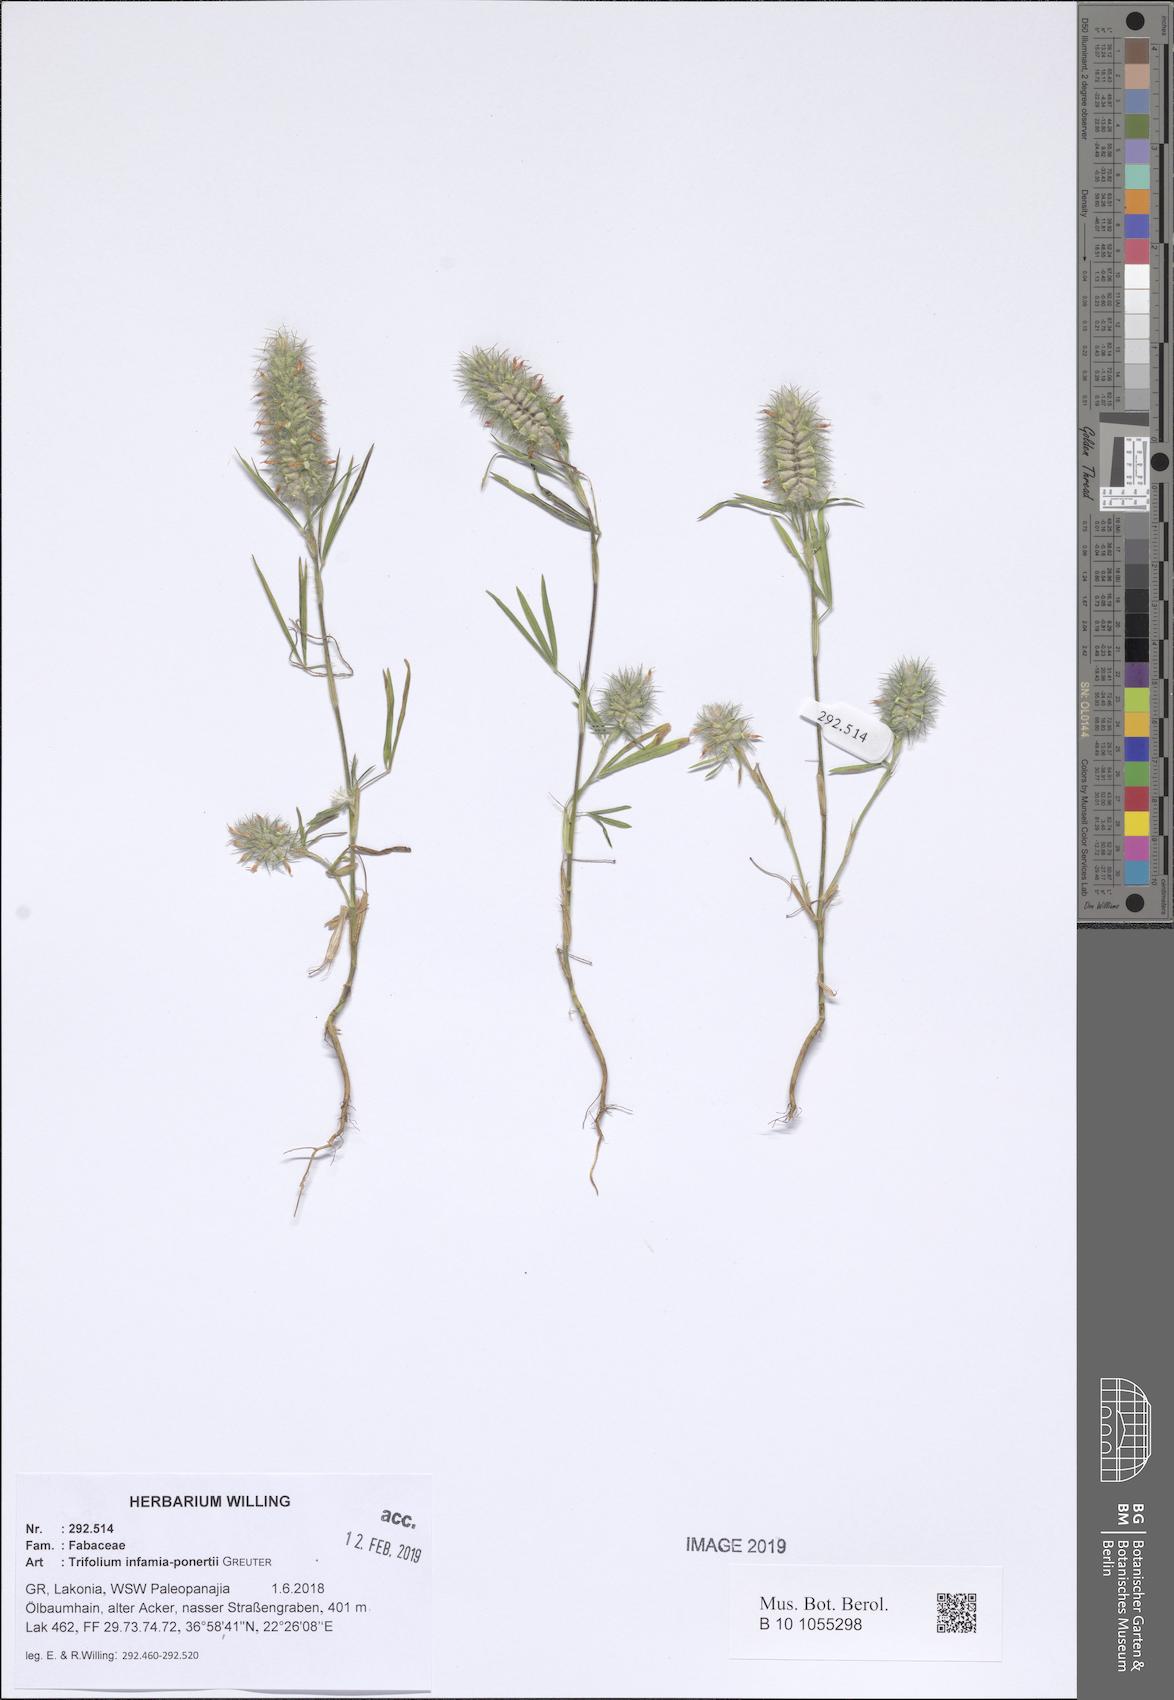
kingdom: Plantae
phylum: Tracheophyta
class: Magnoliopsida
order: Fabales
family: Fabaceae
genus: Trifolium
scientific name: Trifolium infamia-ponertii
